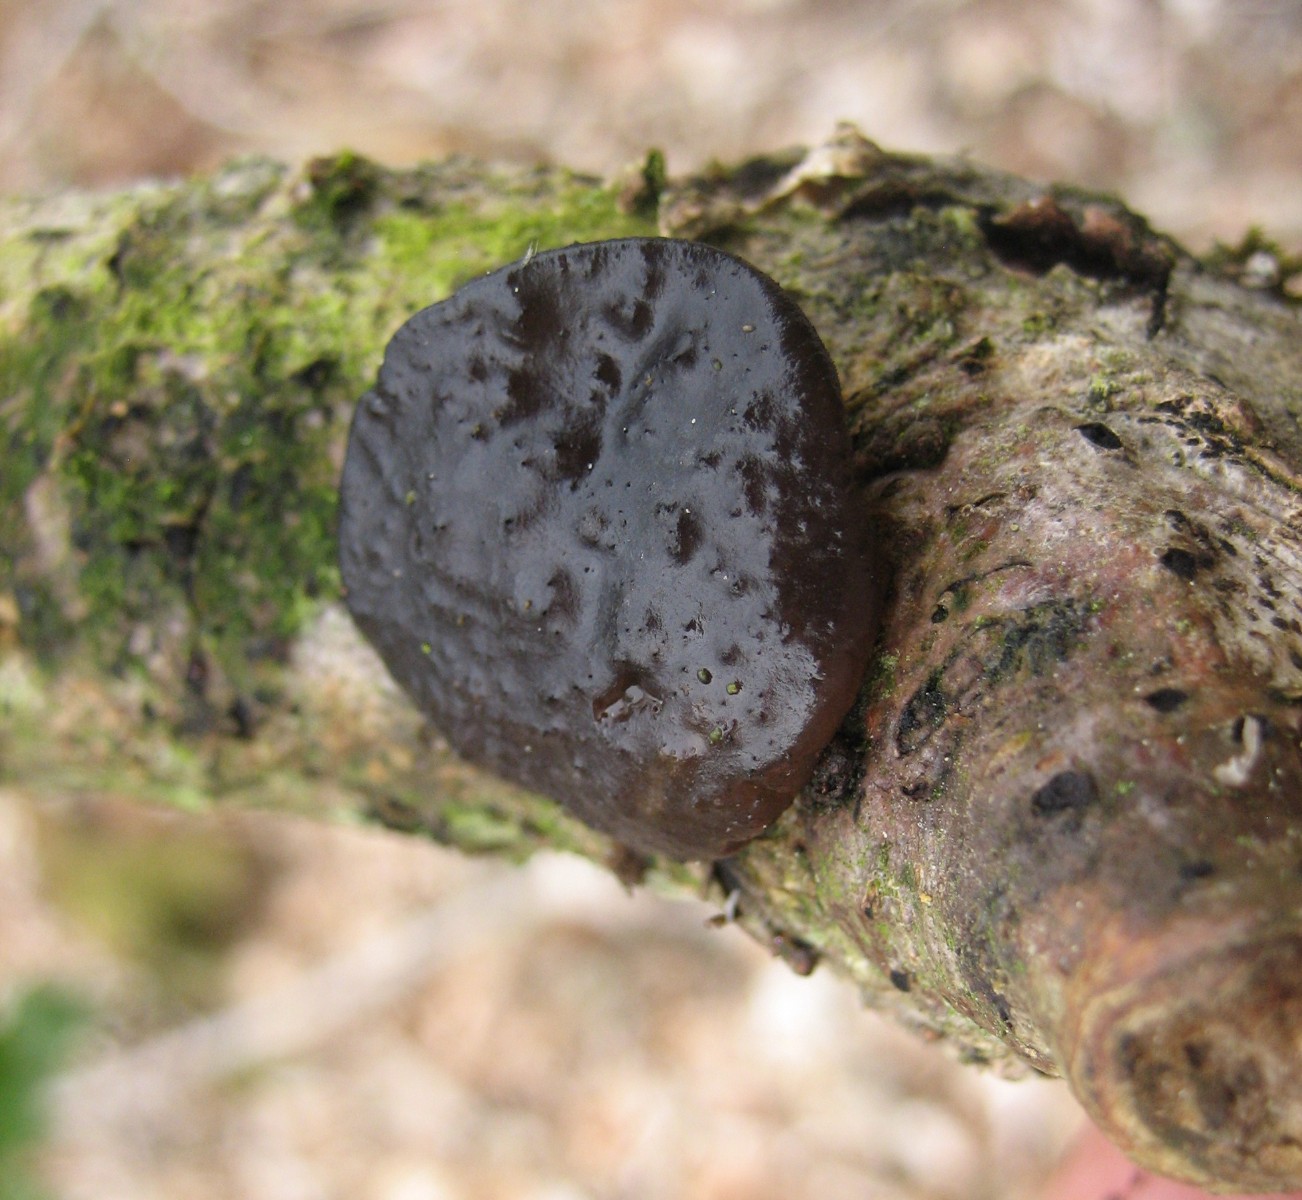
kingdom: Fungi
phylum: Basidiomycota
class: Agaricomycetes
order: Auriculariales
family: Auriculariaceae
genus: Exidia
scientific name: Exidia glandulosa
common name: ege-bævretop
